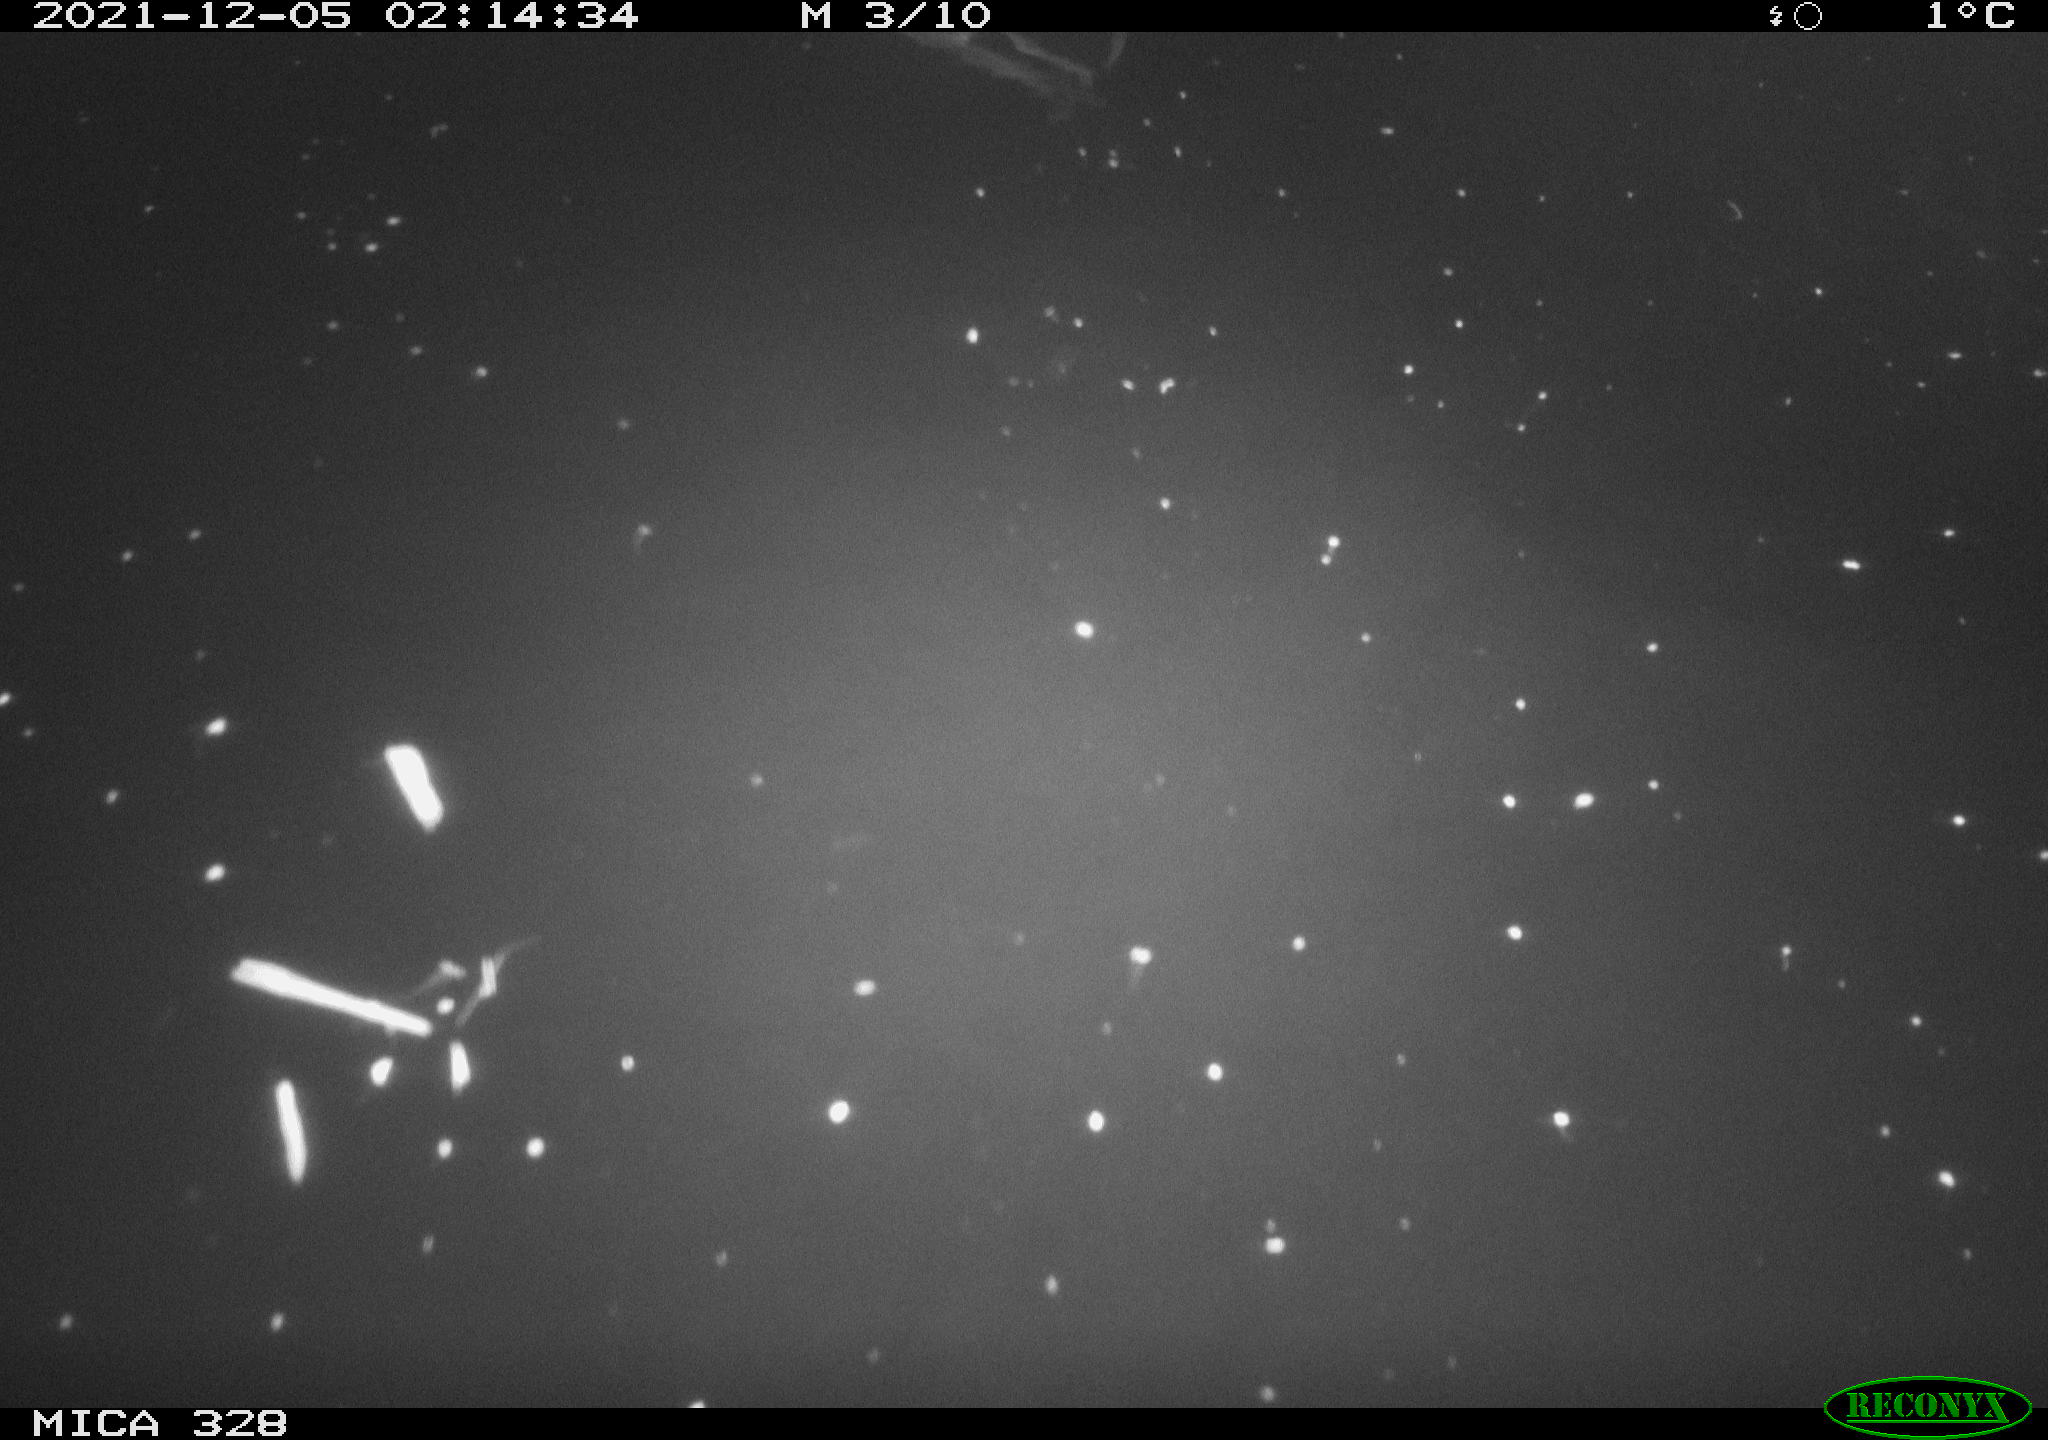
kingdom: Animalia
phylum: Chordata
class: Aves
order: Anseriformes
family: Anatidae
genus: Anas
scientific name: Anas platyrhynchos
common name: Mallard
